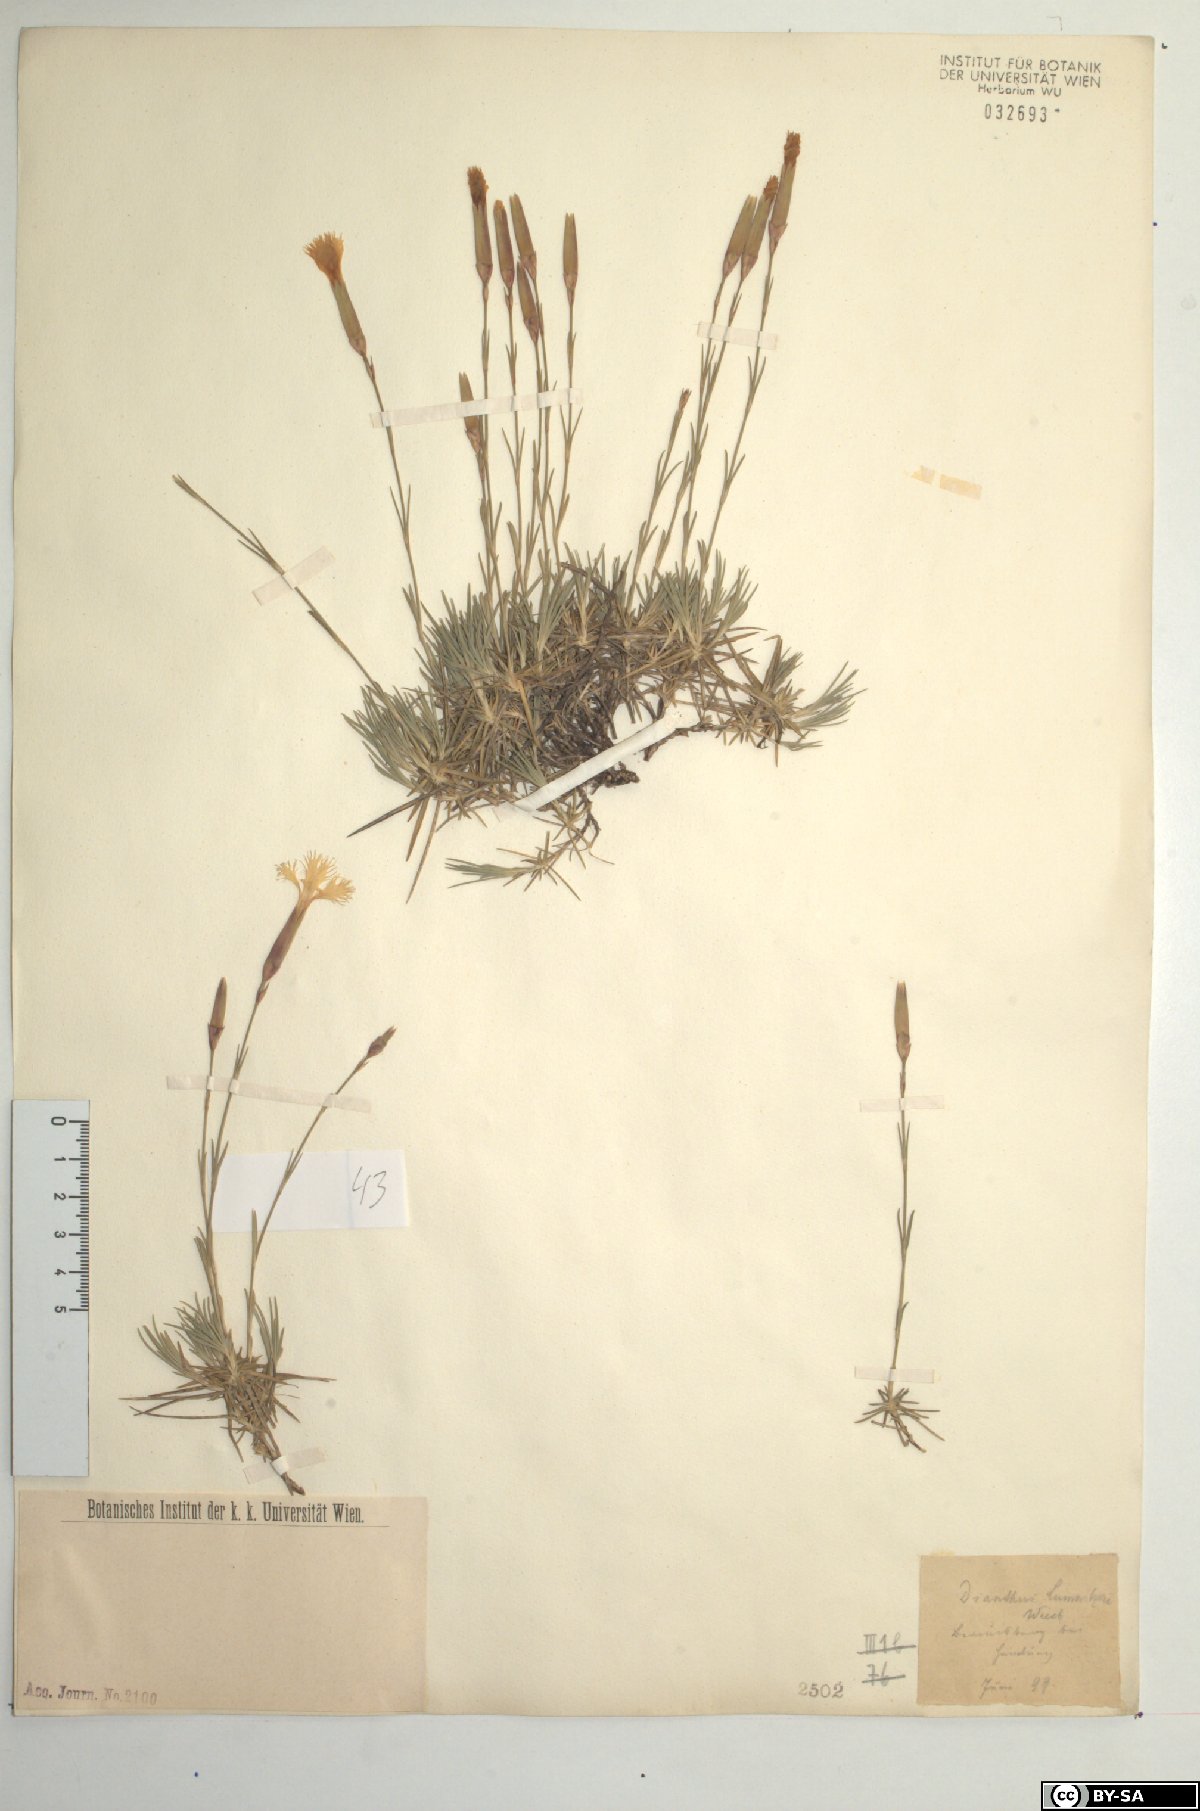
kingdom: Plantae
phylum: Tracheophyta
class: Magnoliopsida
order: Caryophyllales
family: Caryophyllaceae
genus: Dianthus
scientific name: Dianthus praecox
